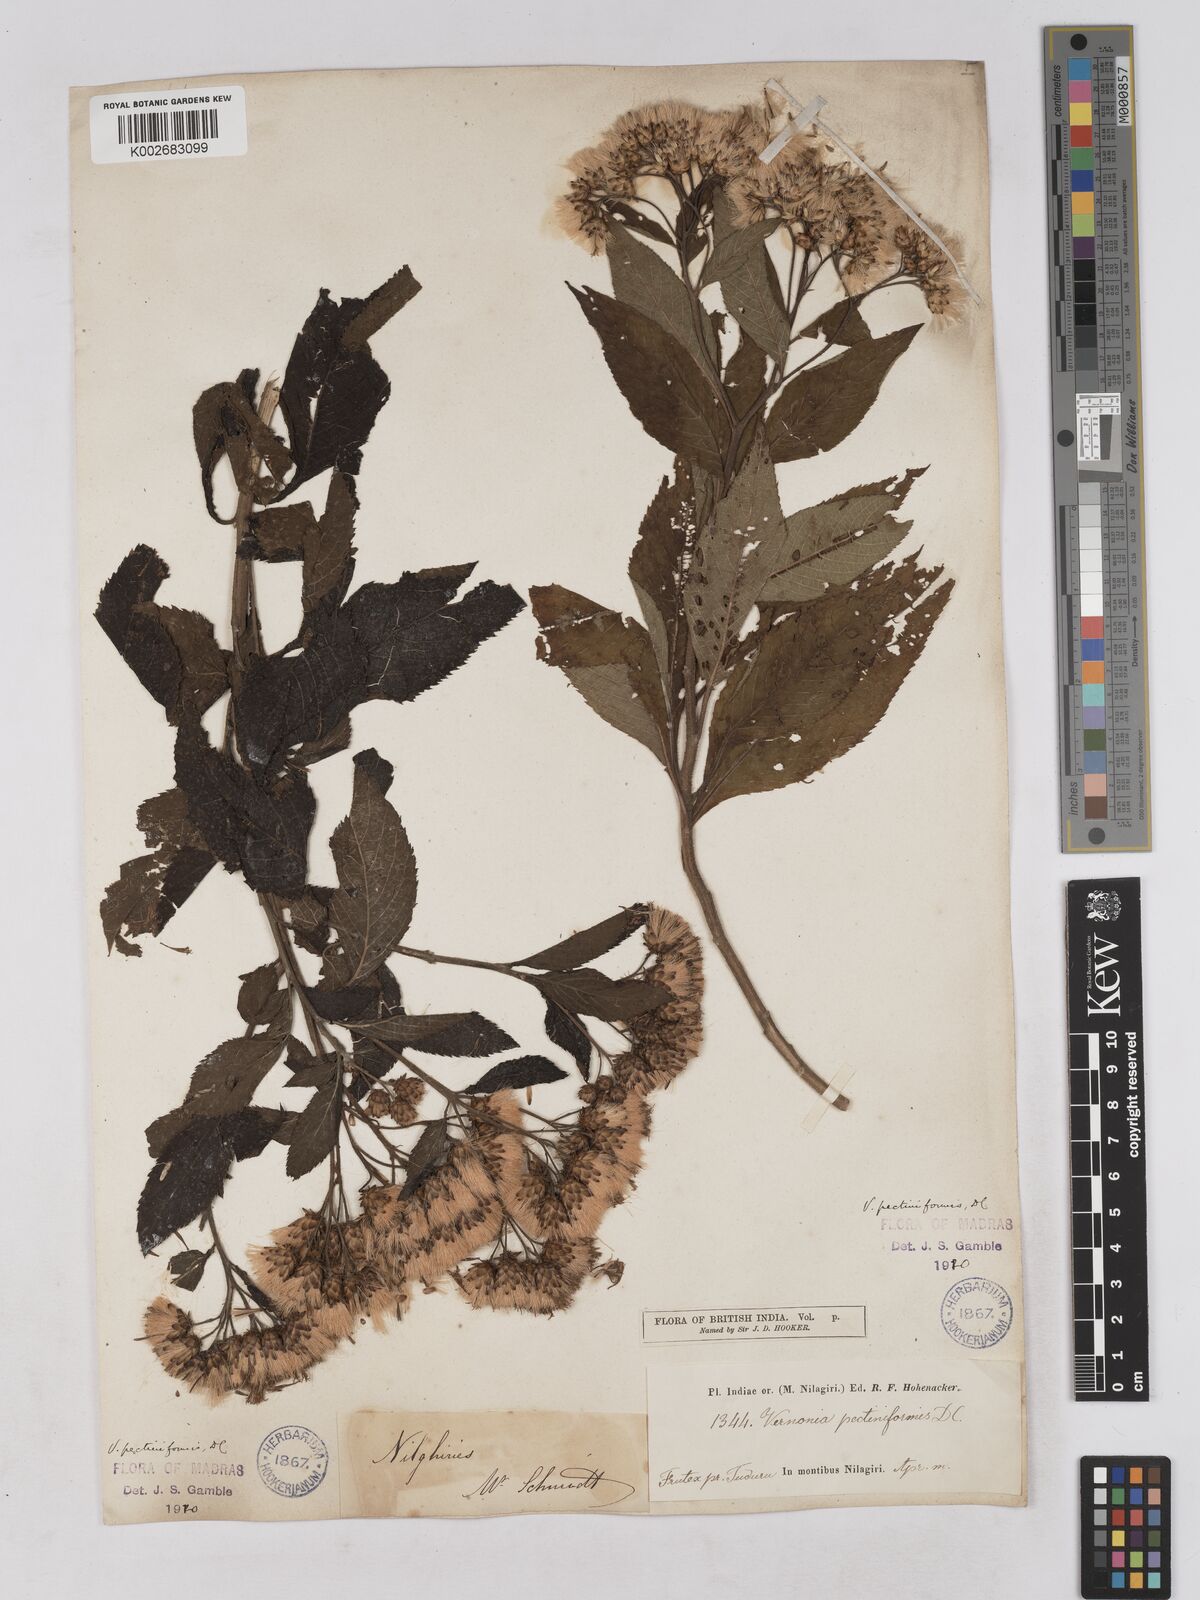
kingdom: Plantae
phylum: Tracheophyta
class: Magnoliopsida
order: Asterales
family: Asteraceae
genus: Gymnanthemum
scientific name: Gymnanthemum pectiniforme
